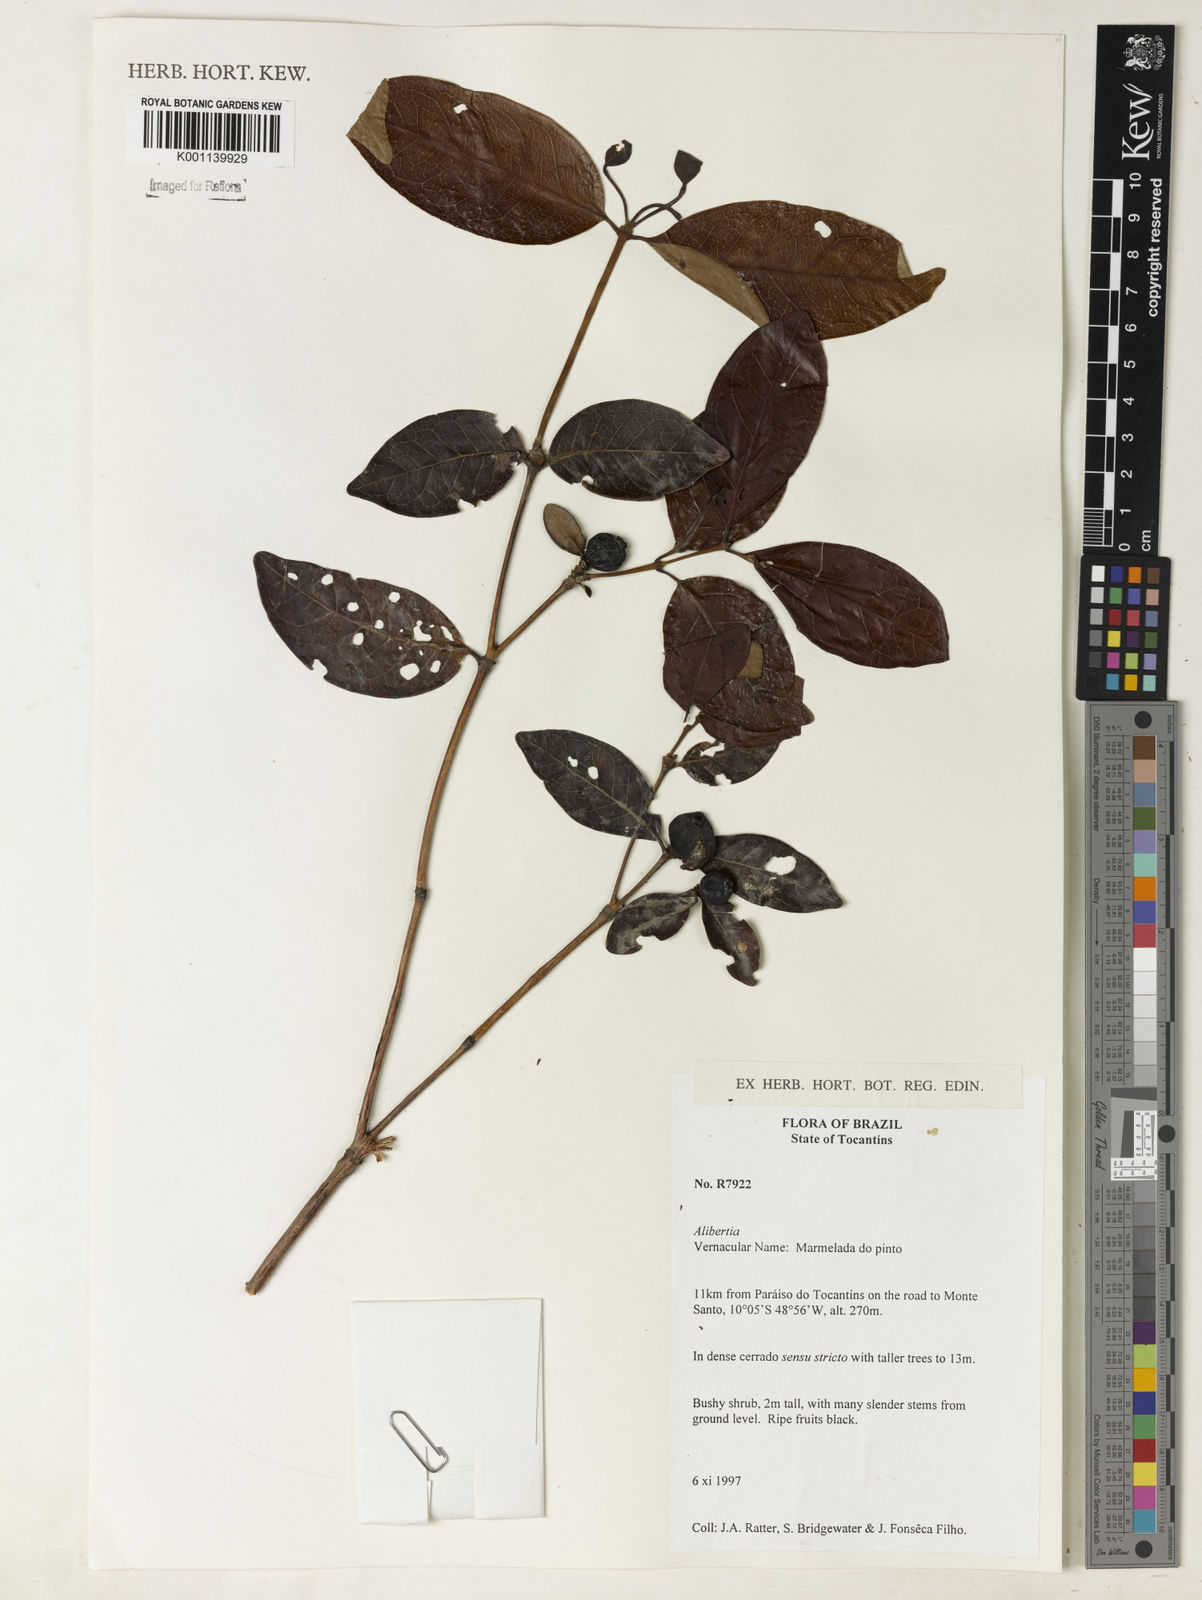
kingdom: Plantae
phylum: Tracheophyta
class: Magnoliopsida
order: Gentianales
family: Rubiaceae
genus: Alibertia
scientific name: Alibertia
